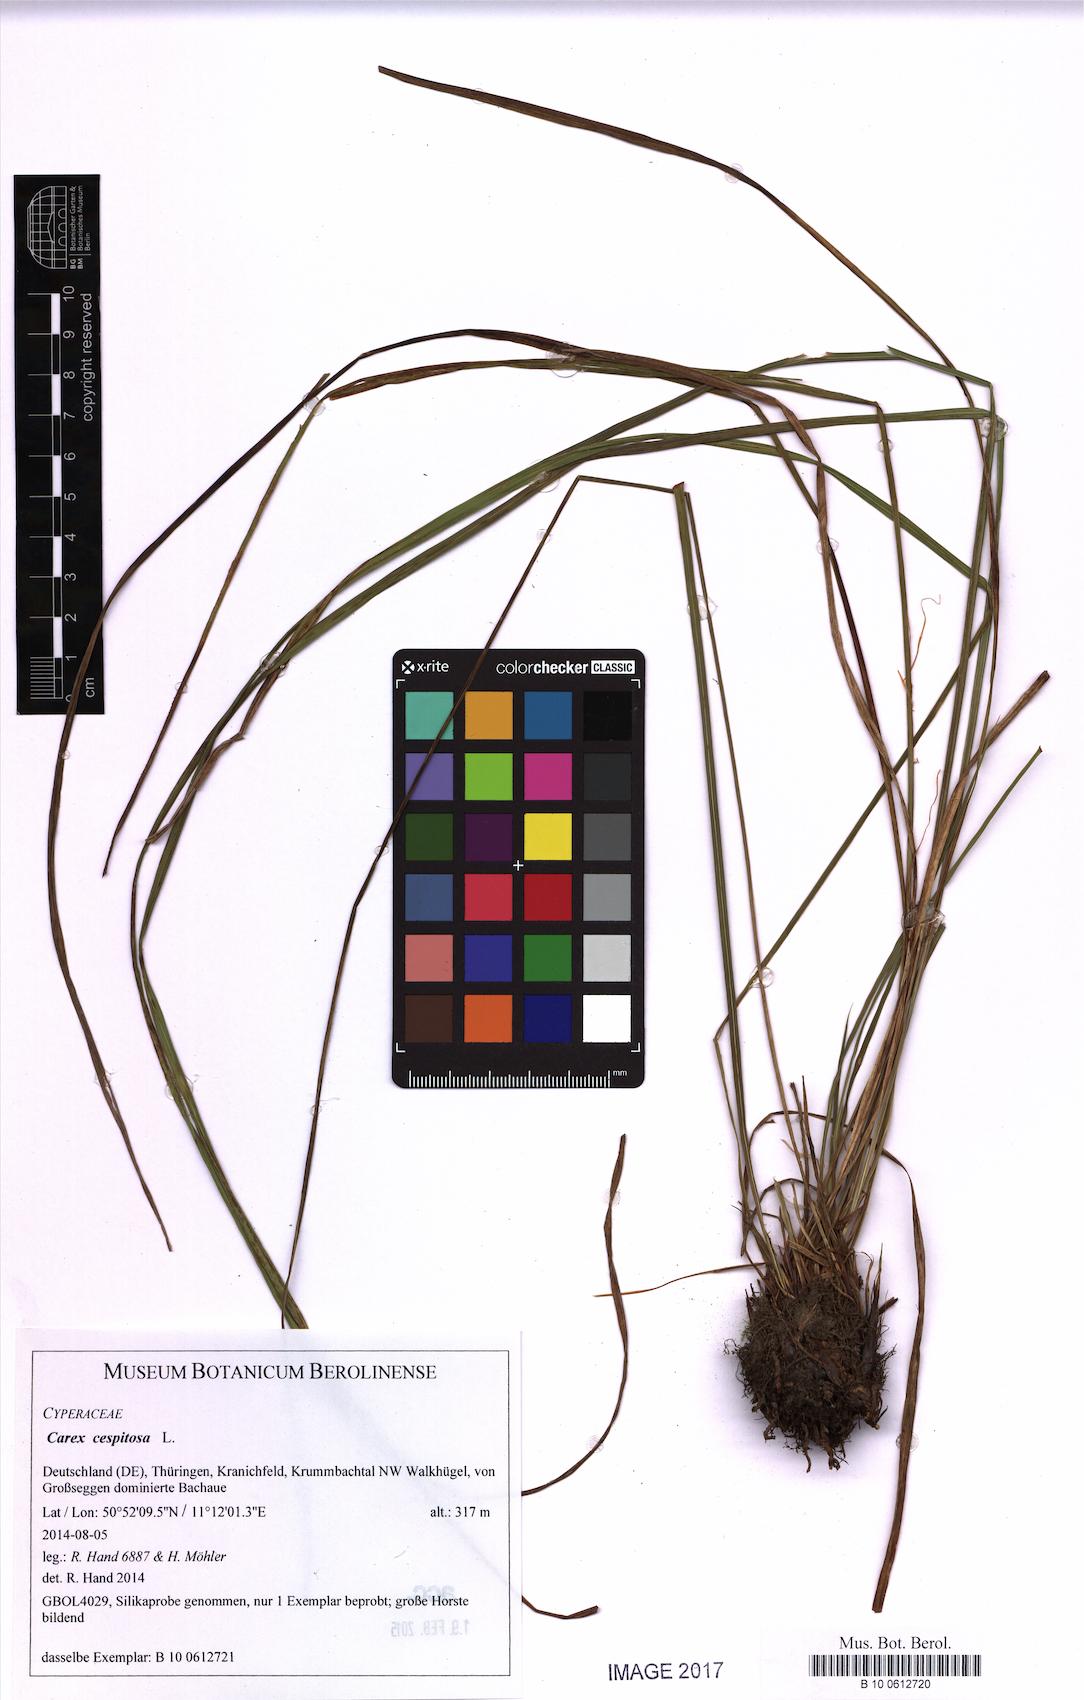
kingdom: Plantae
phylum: Tracheophyta
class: Liliopsida
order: Poales
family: Cyperaceae
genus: Carex
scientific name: Carex cespitosa
